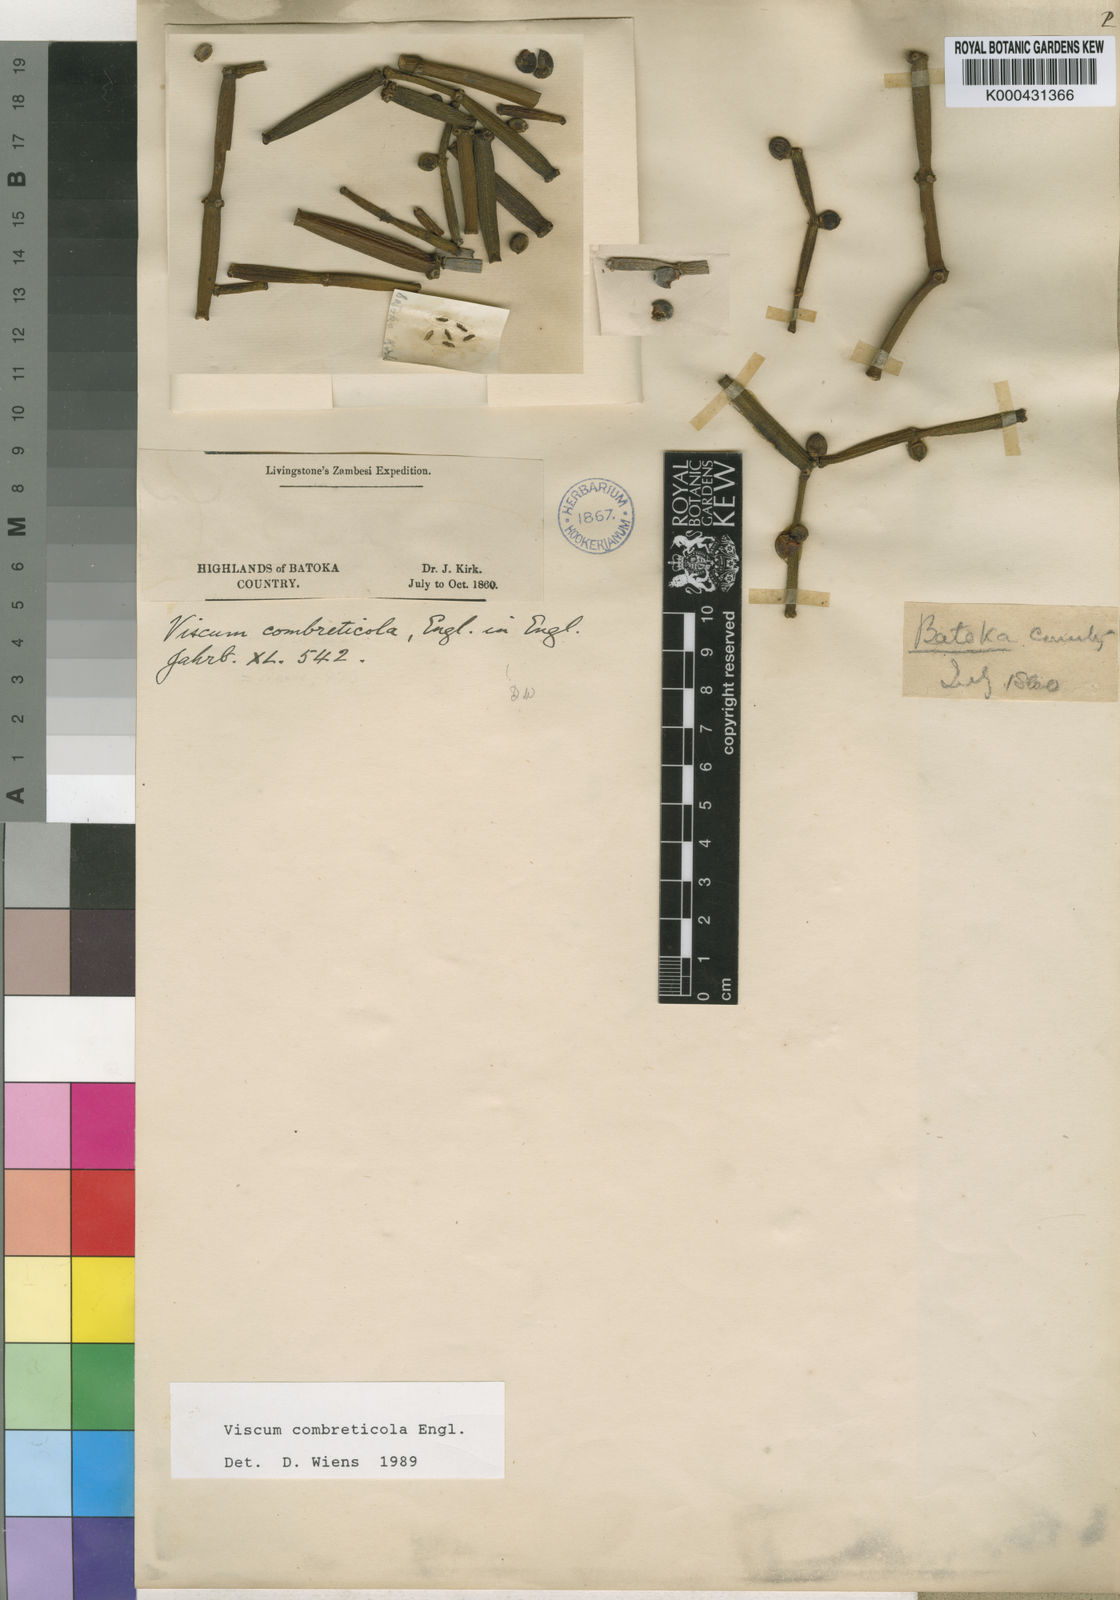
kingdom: Plantae
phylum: Tracheophyta
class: Magnoliopsida
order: Santalales
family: Viscaceae
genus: Viscum
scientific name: Viscum combreticola
